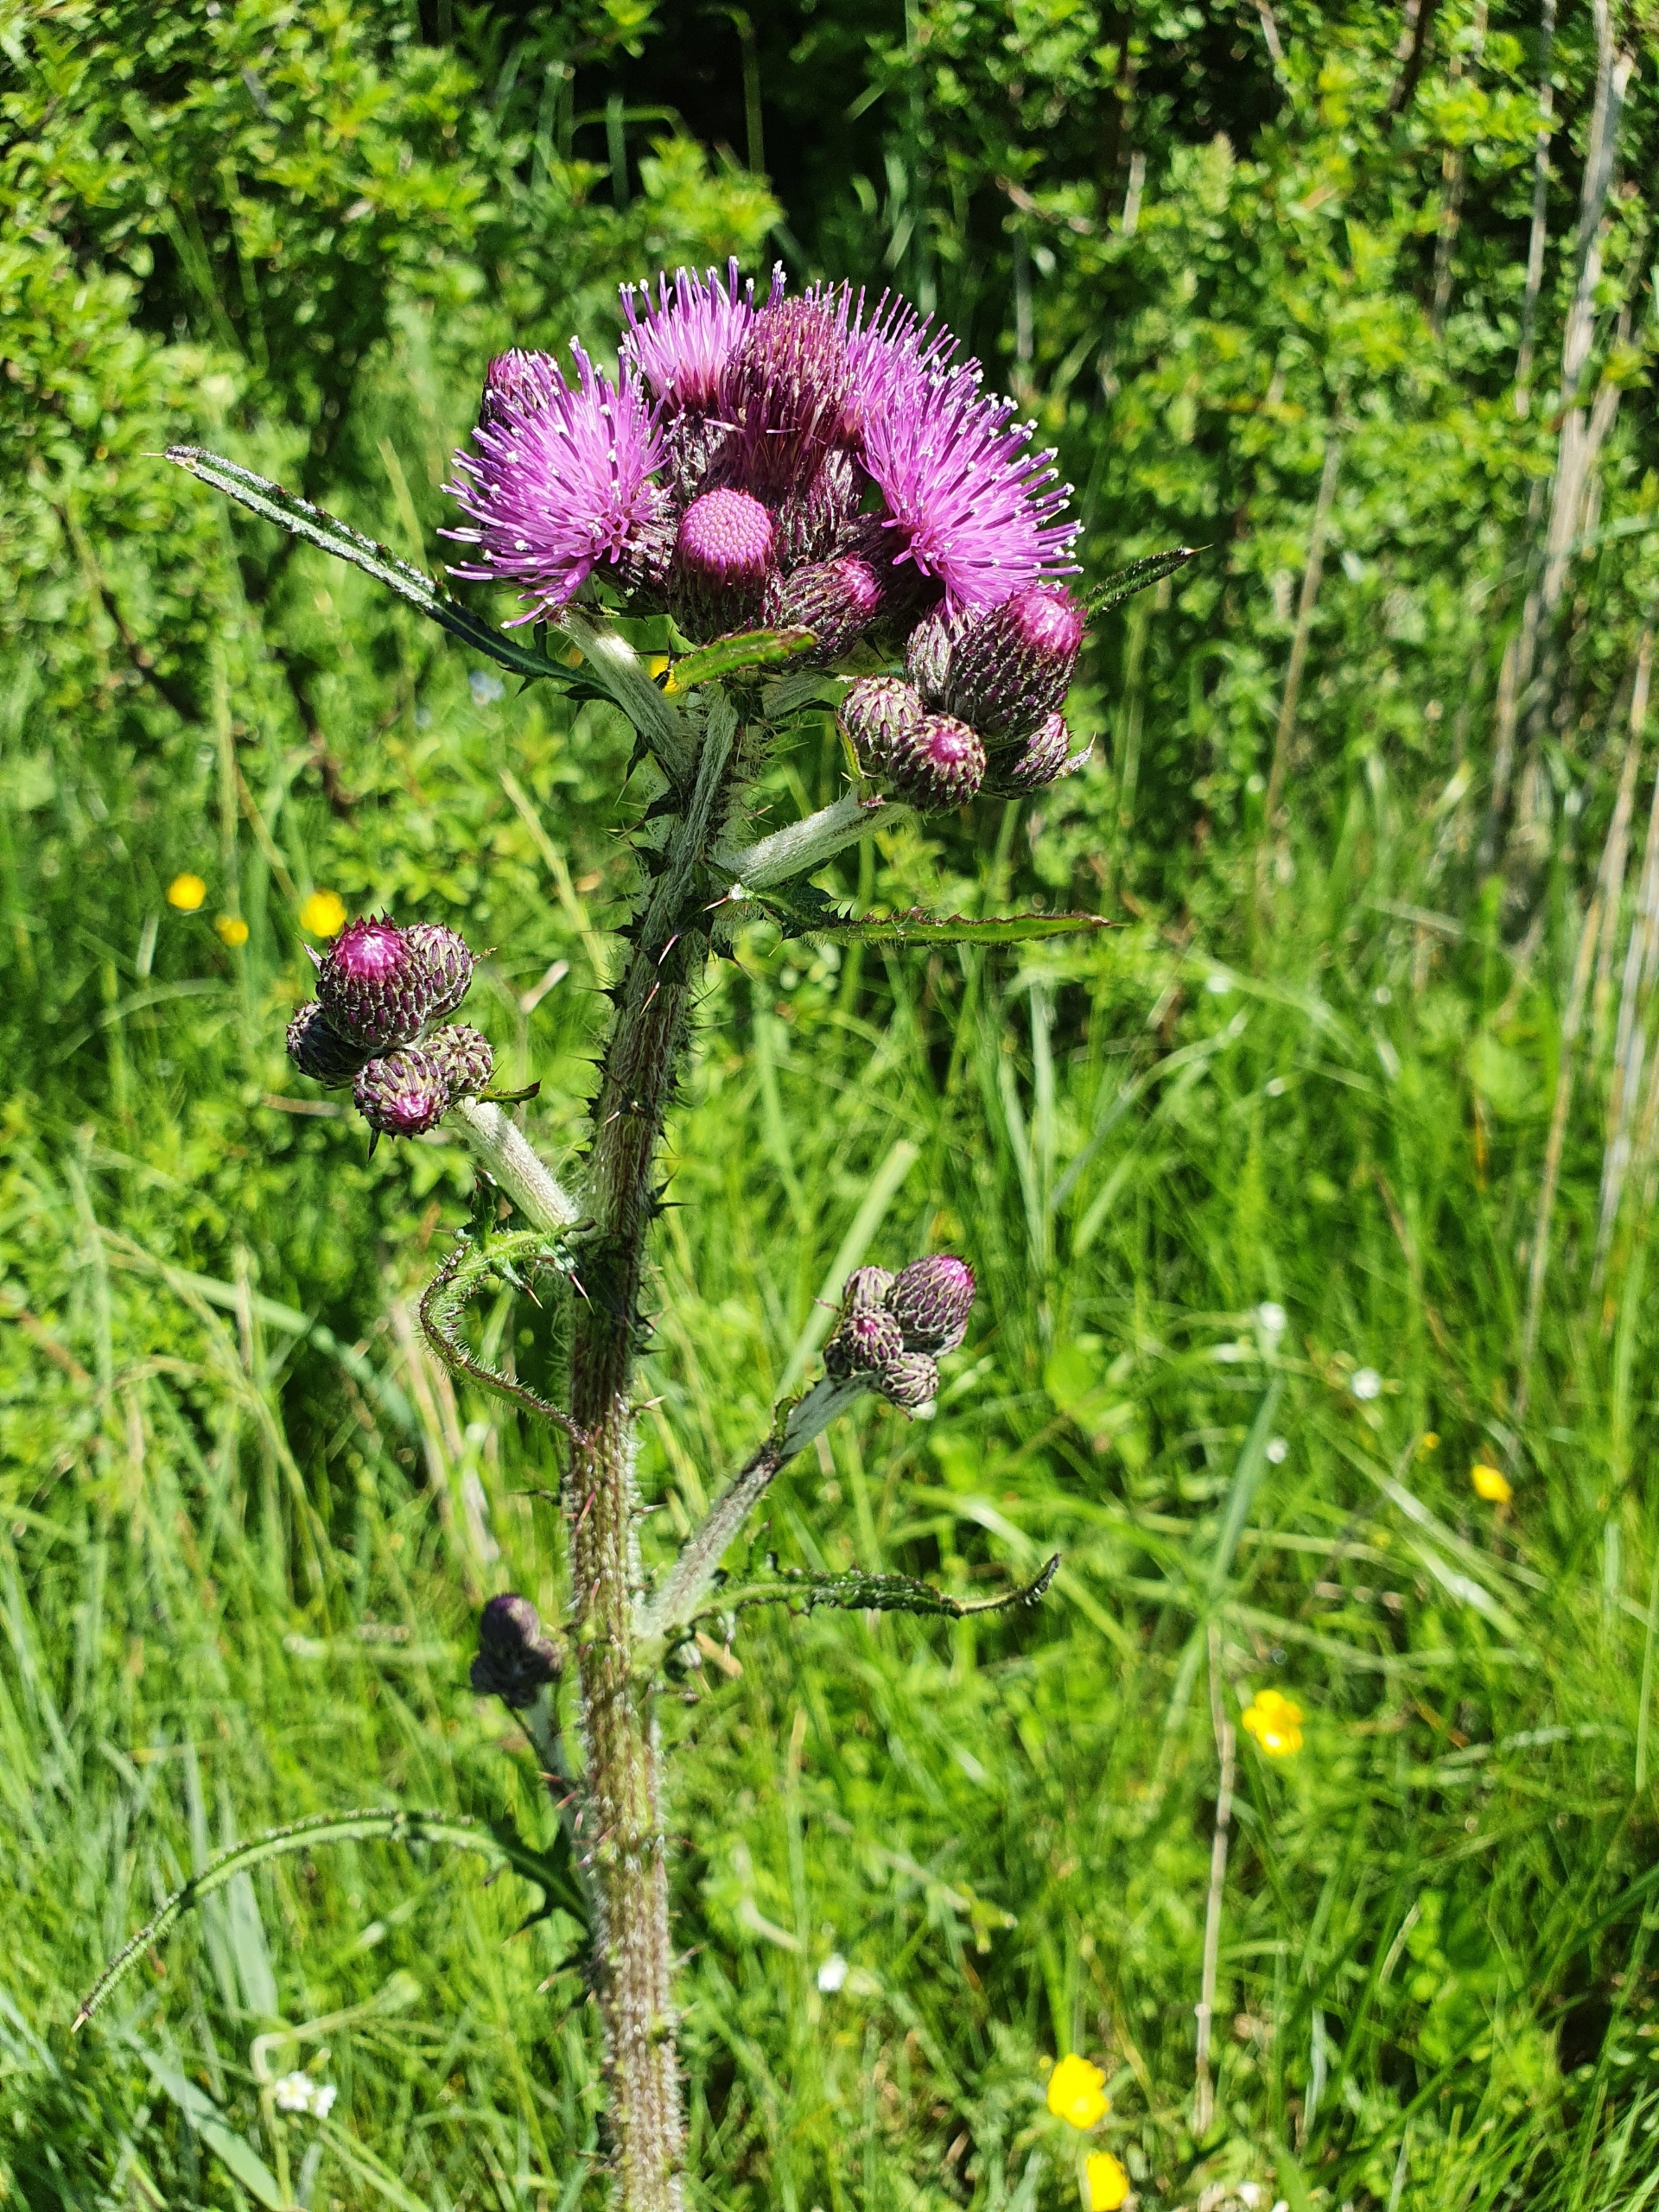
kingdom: Plantae
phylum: Tracheophyta
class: Magnoliopsida
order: Asterales
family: Asteraceae
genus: Cirsium
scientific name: Cirsium palustre
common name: Kær-tidsel
